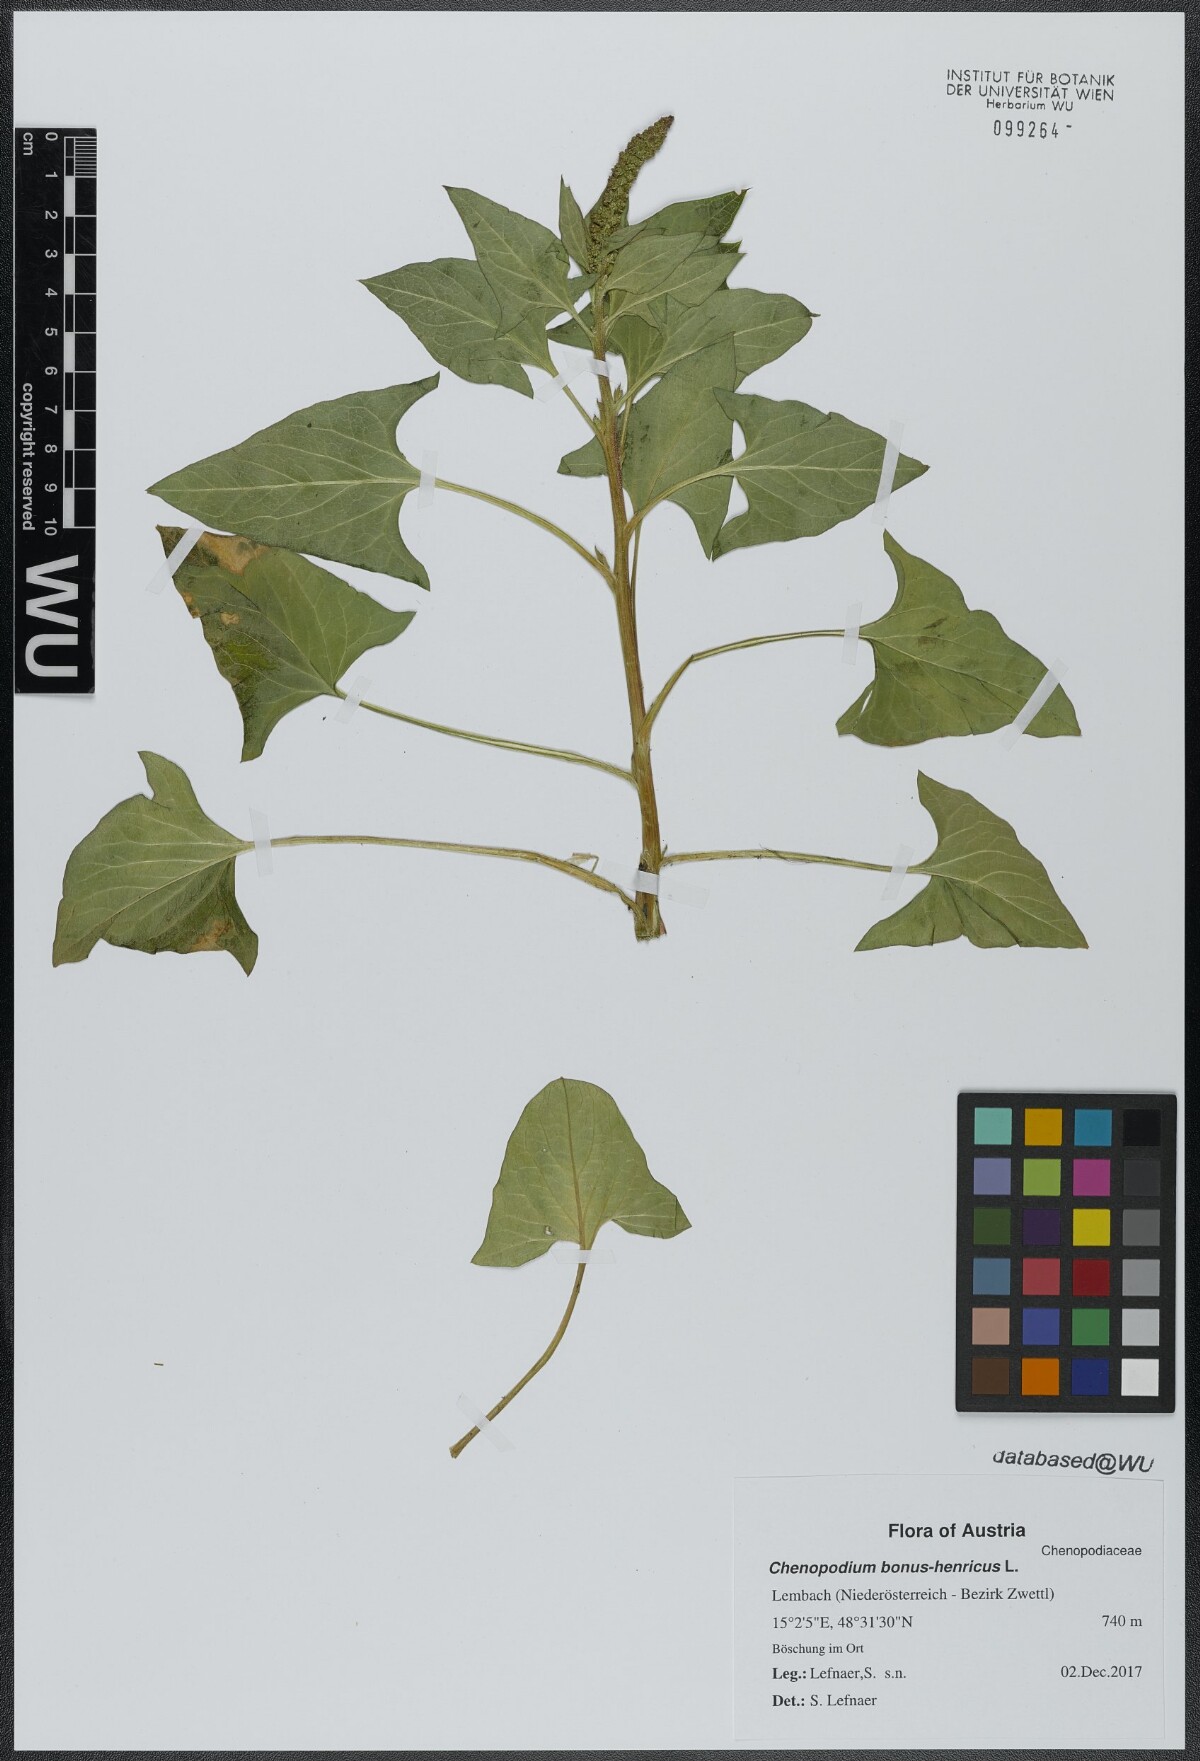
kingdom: Plantae
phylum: Tracheophyta
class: Magnoliopsida
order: Caryophyllales
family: Amaranthaceae
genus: Blitum
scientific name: Blitum bonus-henricus
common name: Good king henry
